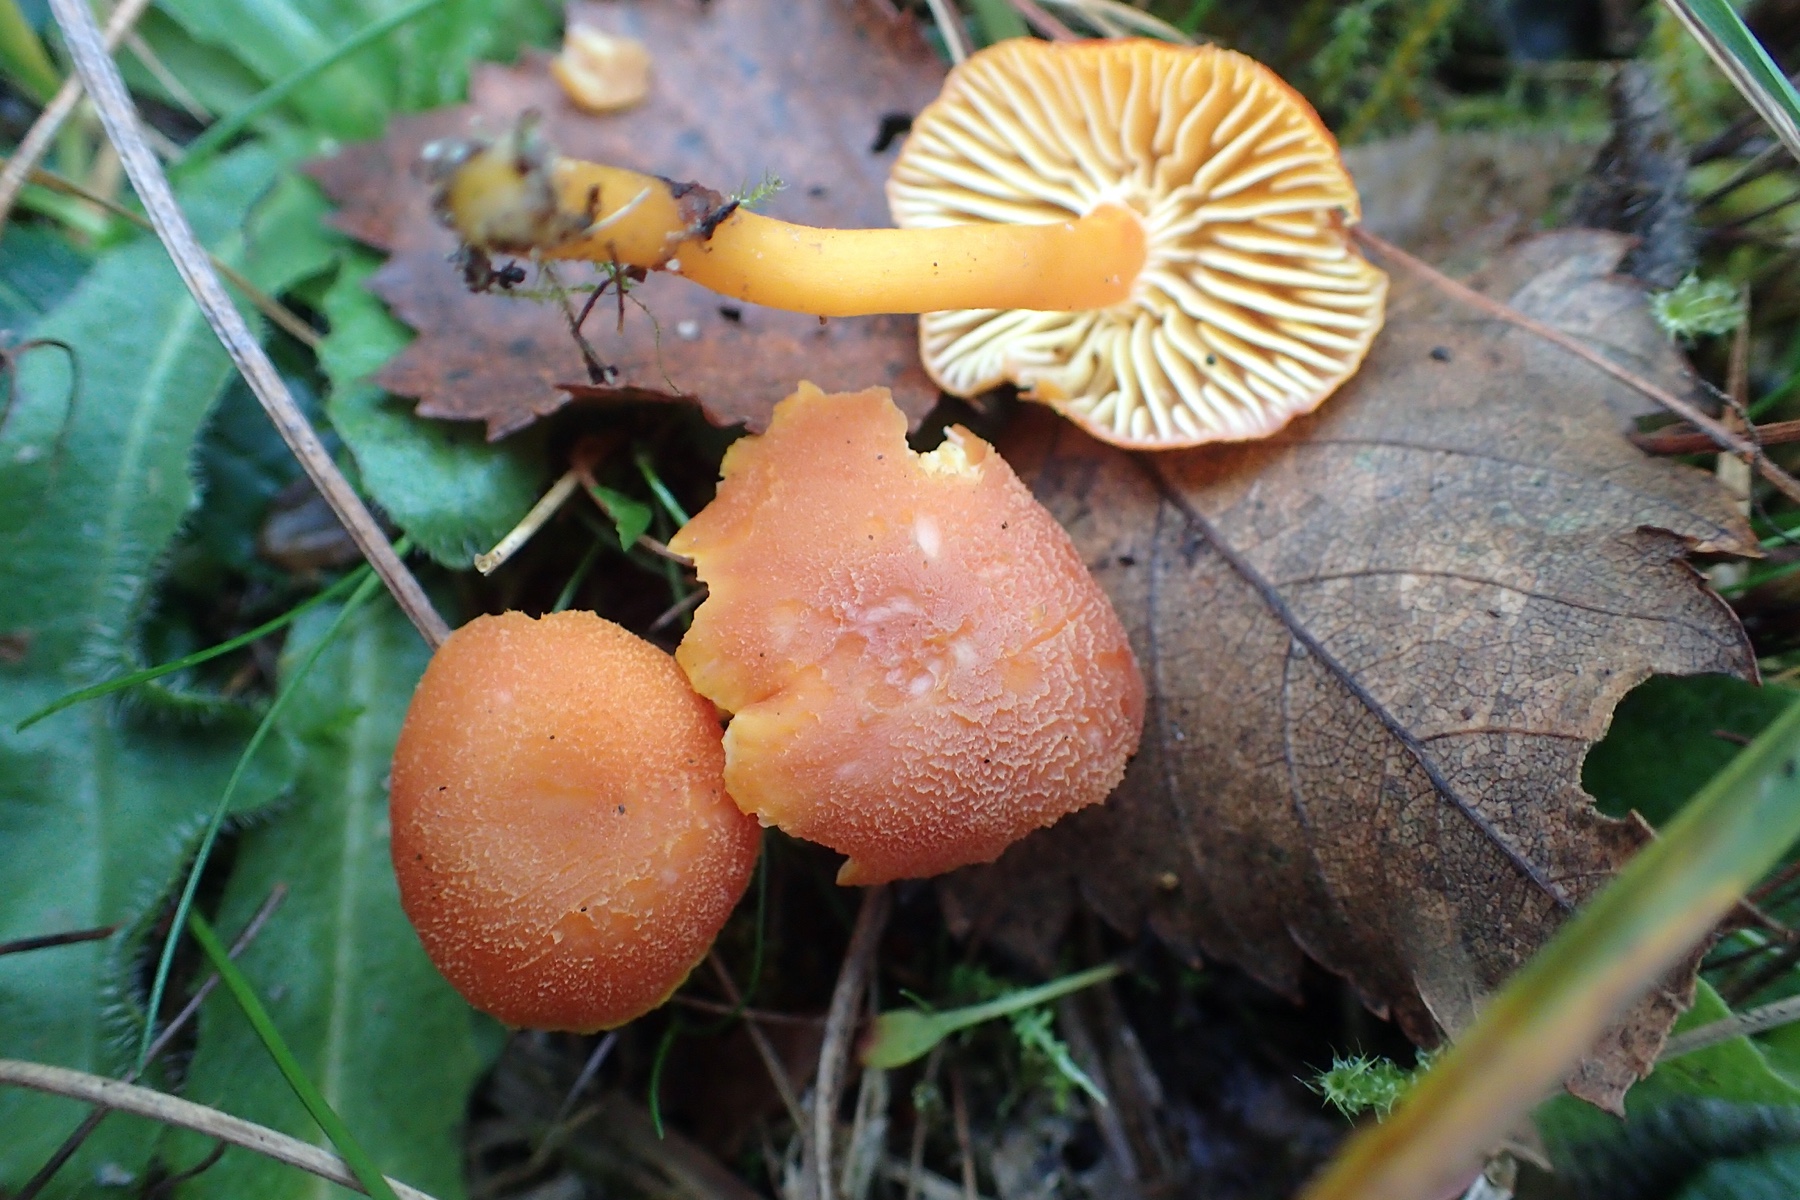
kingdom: Fungi
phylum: Basidiomycota
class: Agaricomycetes
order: Agaricales
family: Hygrophoraceae
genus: Hygrocybe
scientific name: Hygrocybe miniata
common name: mønje-vokshat
